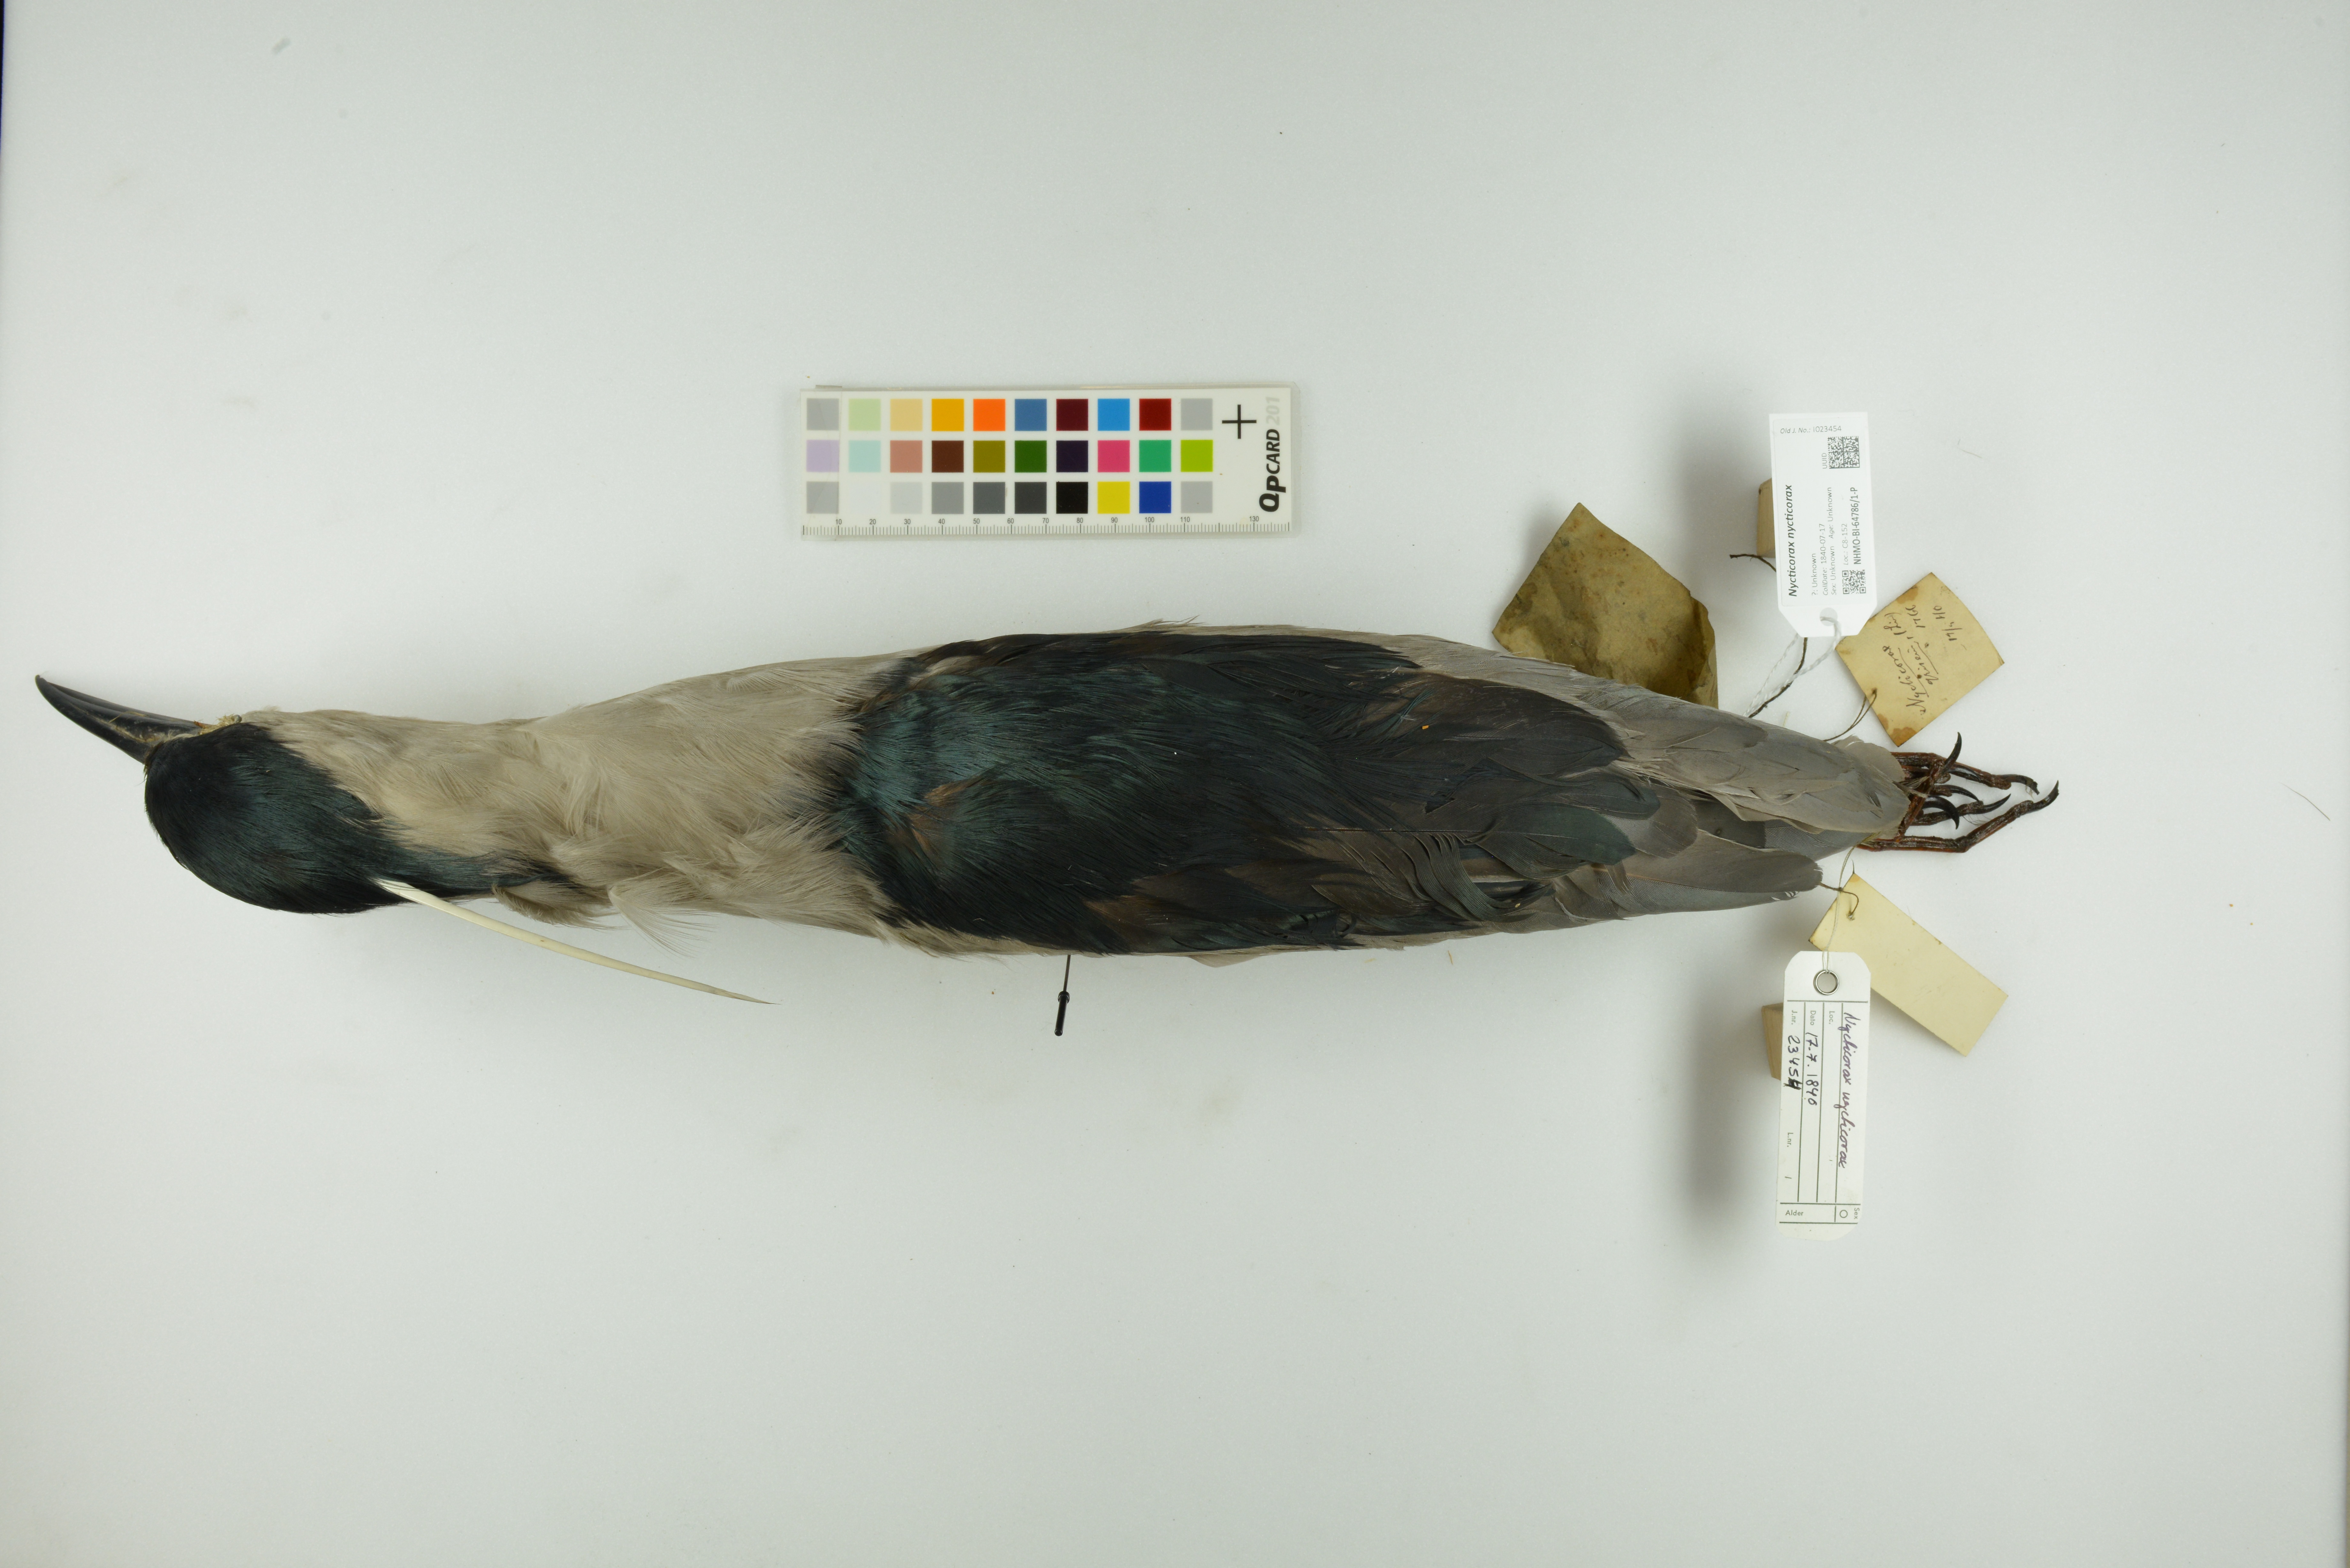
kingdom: Animalia
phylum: Chordata
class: Aves
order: Pelecaniformes
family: Ardeidae
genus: Nycticorax
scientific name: Nycticorax nycticorax
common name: Black-crowned night heron
